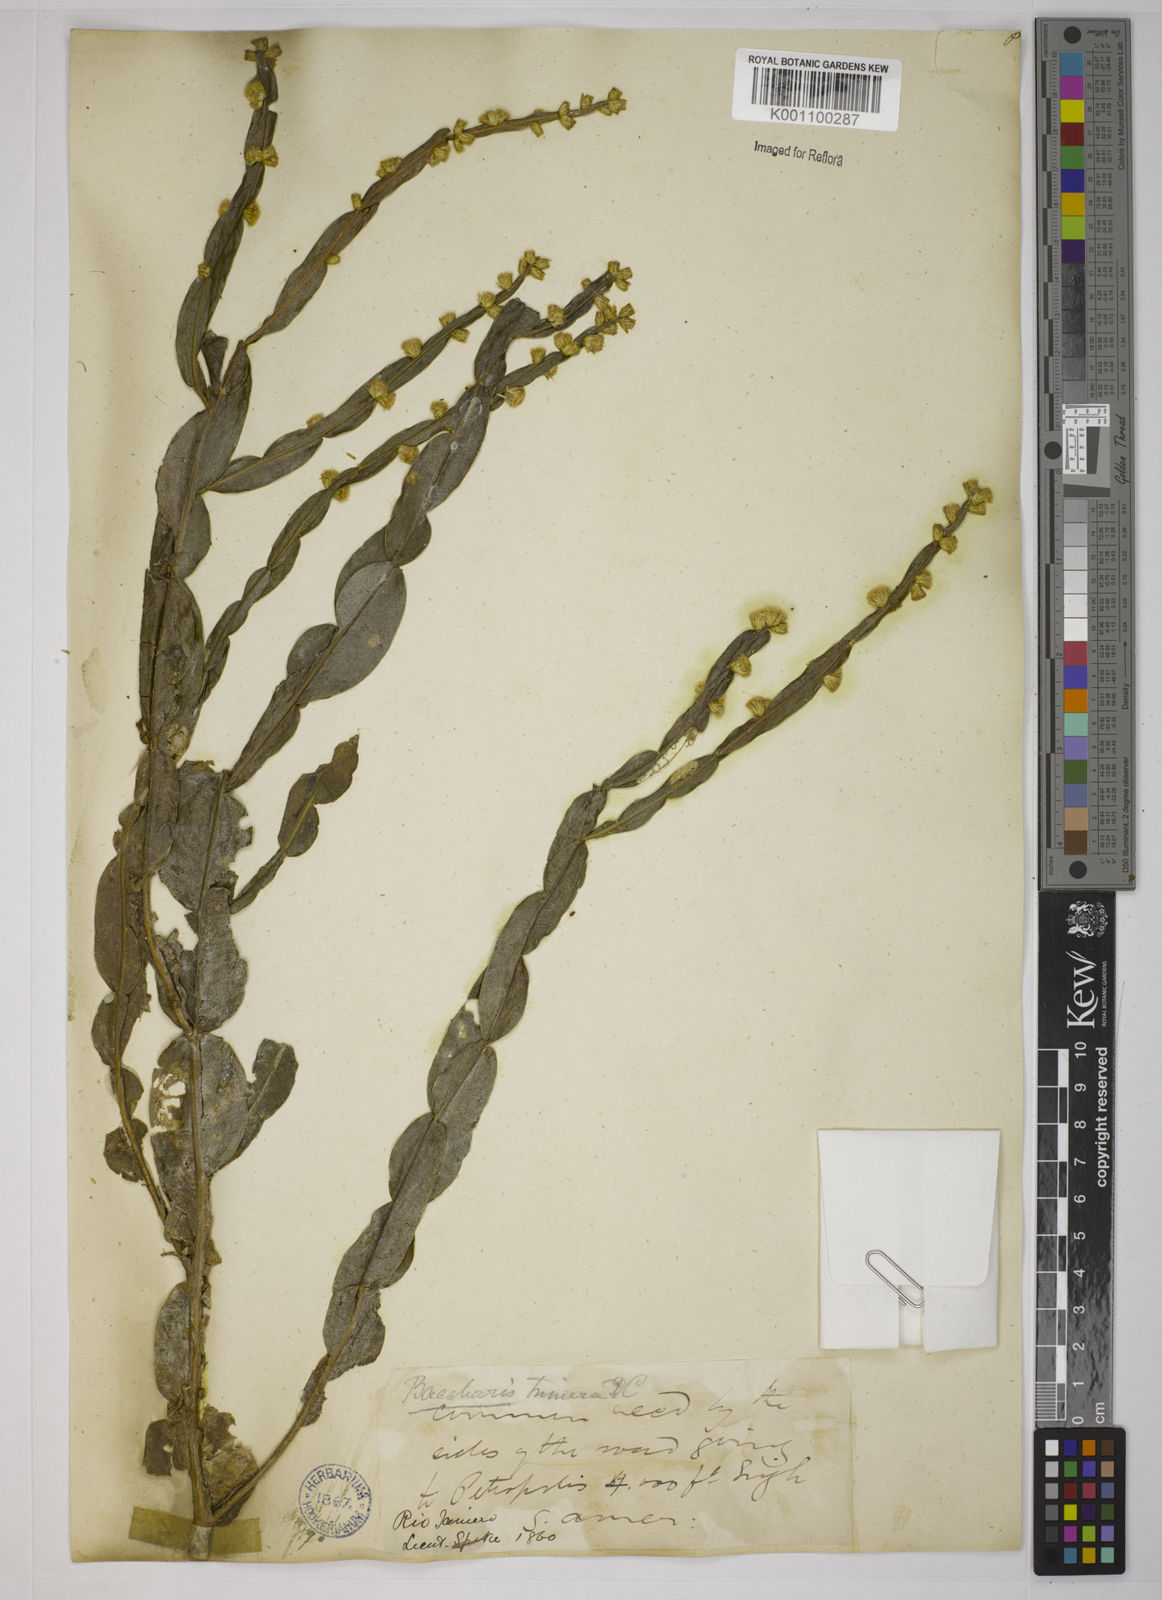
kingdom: Plantae
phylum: Tracheophyta
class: Magnoliopsida
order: Asterales
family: Asteraceae
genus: Baccharis
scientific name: Baccharis trimera
